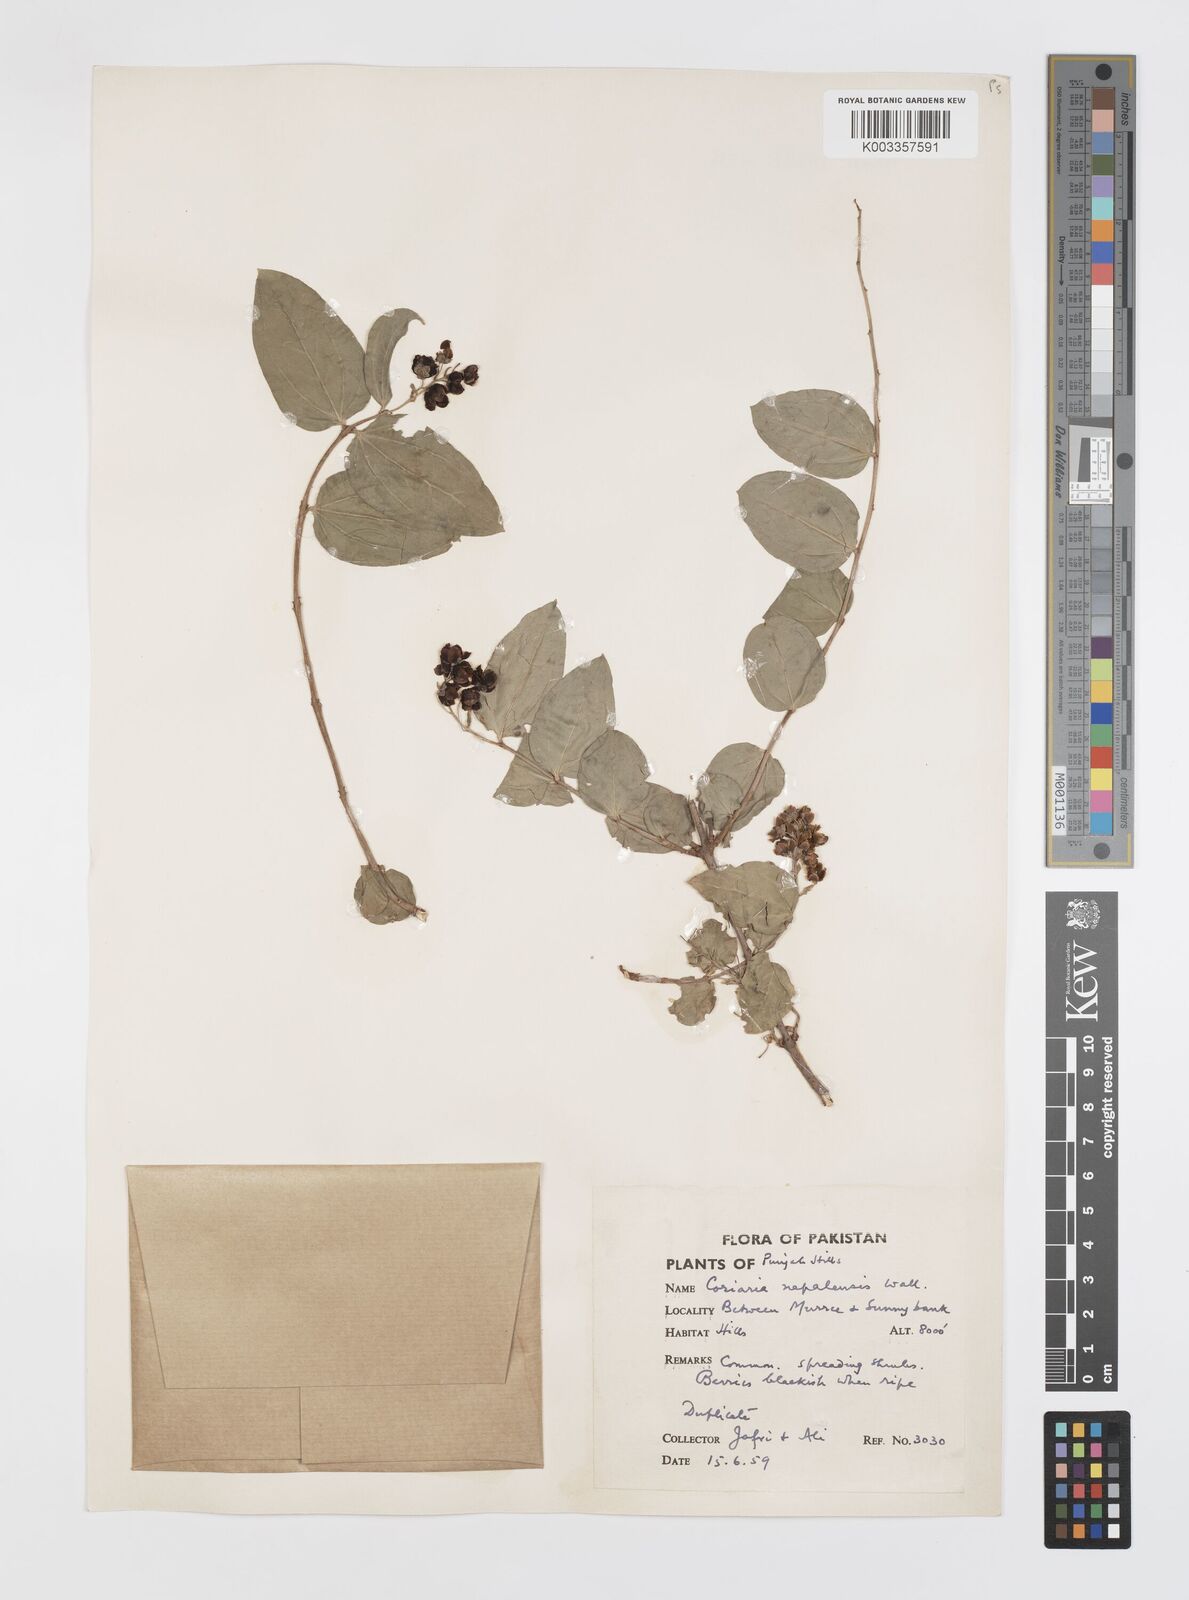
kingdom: Plantae
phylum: Tracheophyta
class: Magnoliopsida
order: Cucurbitales
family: Coriariaceae
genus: Coriaria
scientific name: Coriaria napalensis
